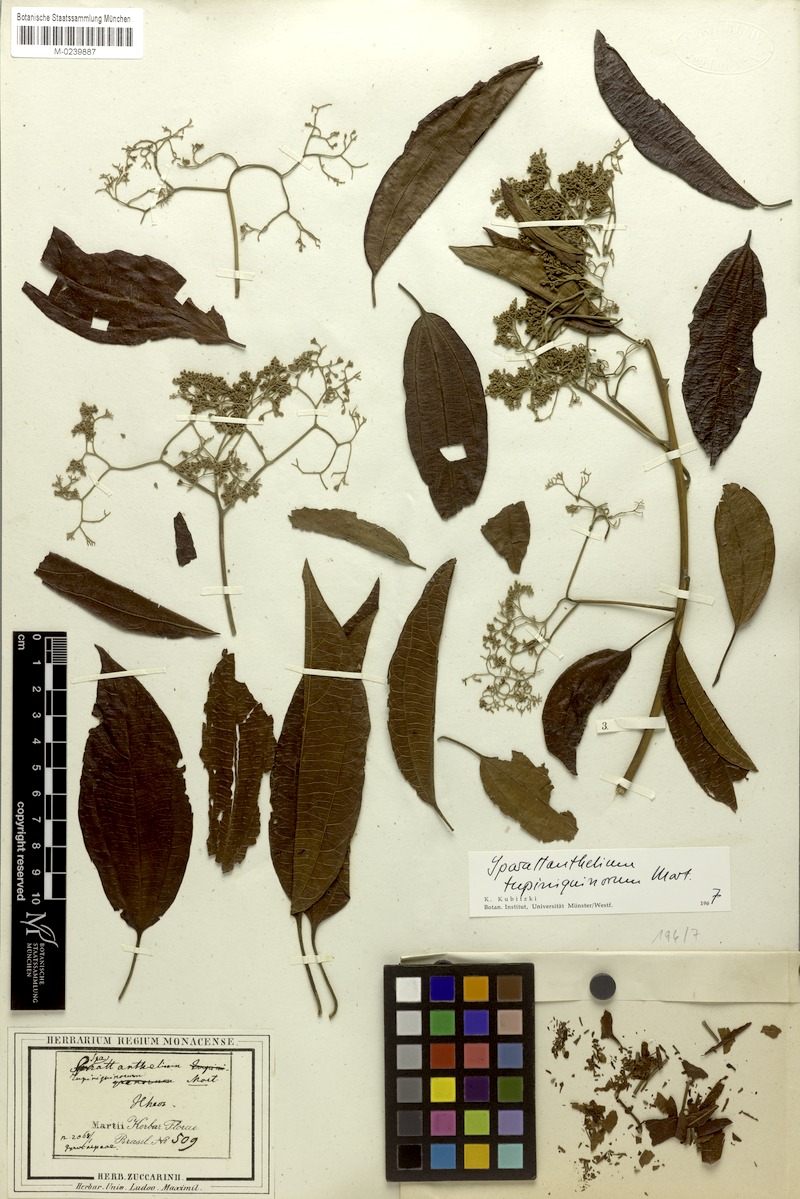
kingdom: Plantae
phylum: Tracheophyta
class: Magnoliopsida
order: Laurales
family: Hernandiaceae
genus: Sparattanthelium
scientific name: Sparattanthelium tupiniquinorum
